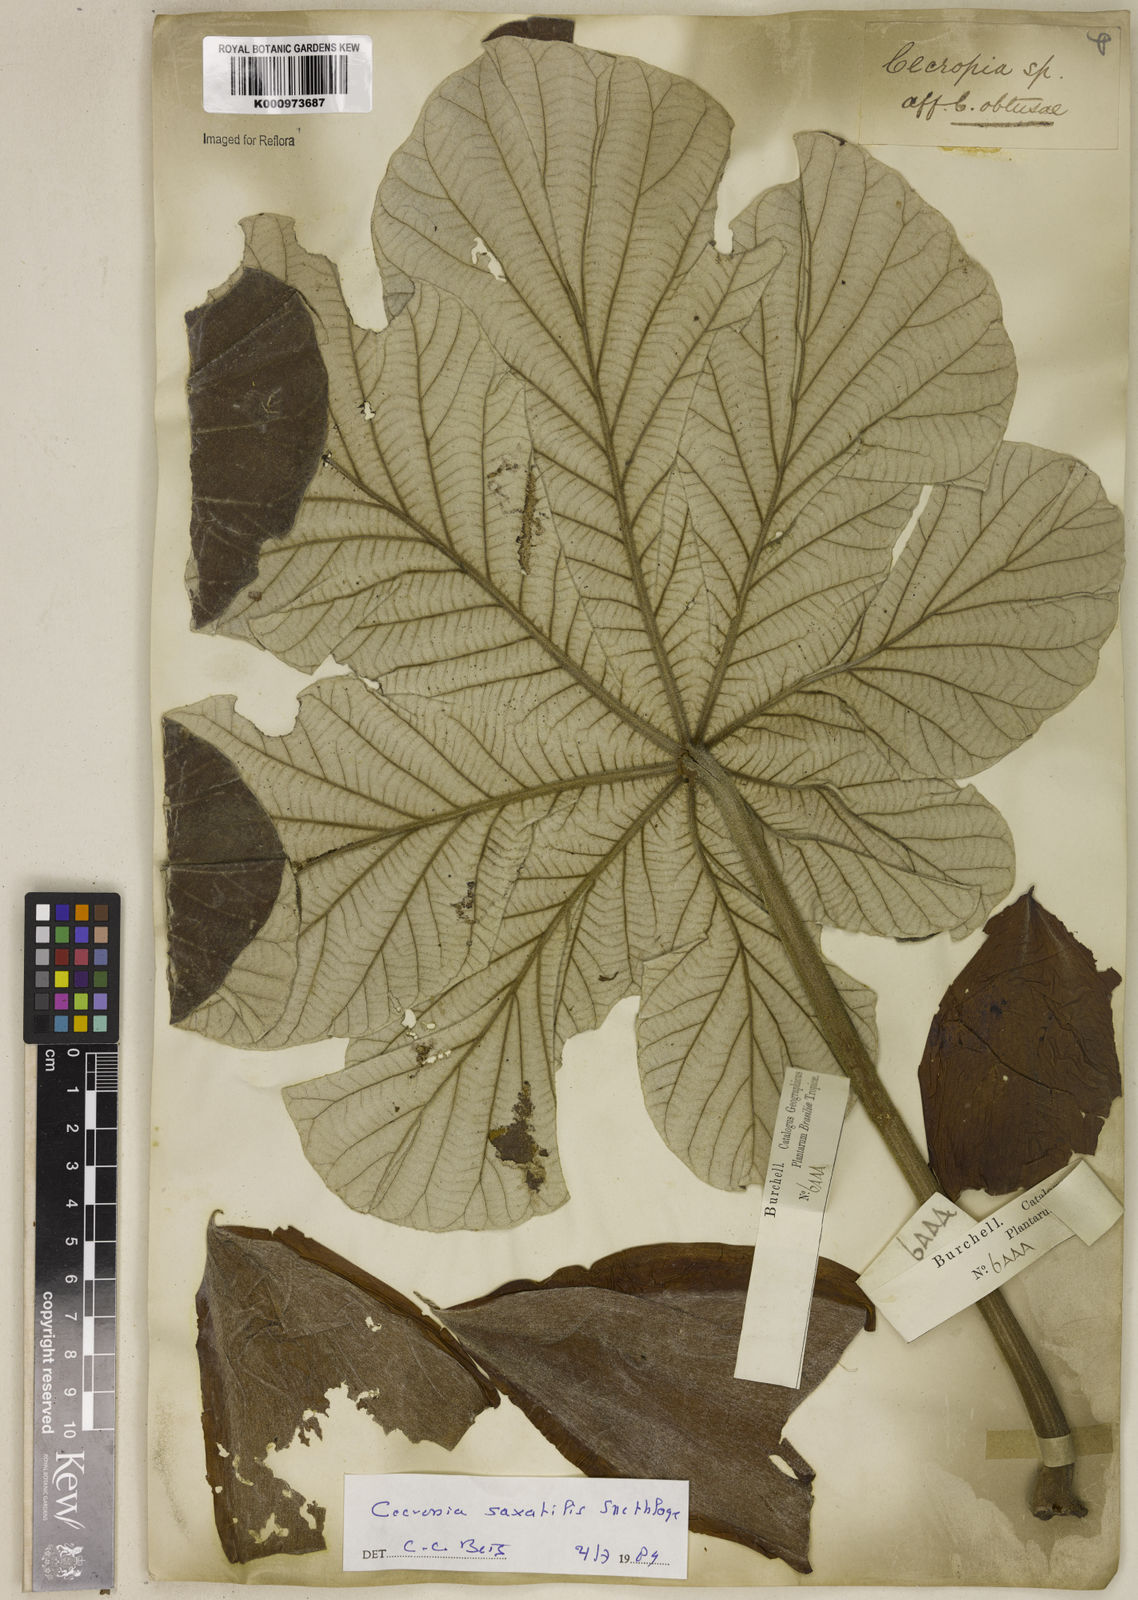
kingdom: Plantae
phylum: Tracheophyta
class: Magnoliopsida
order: Rosales
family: Urticaceae
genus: Cecropia
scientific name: Cecropia saxatilis
